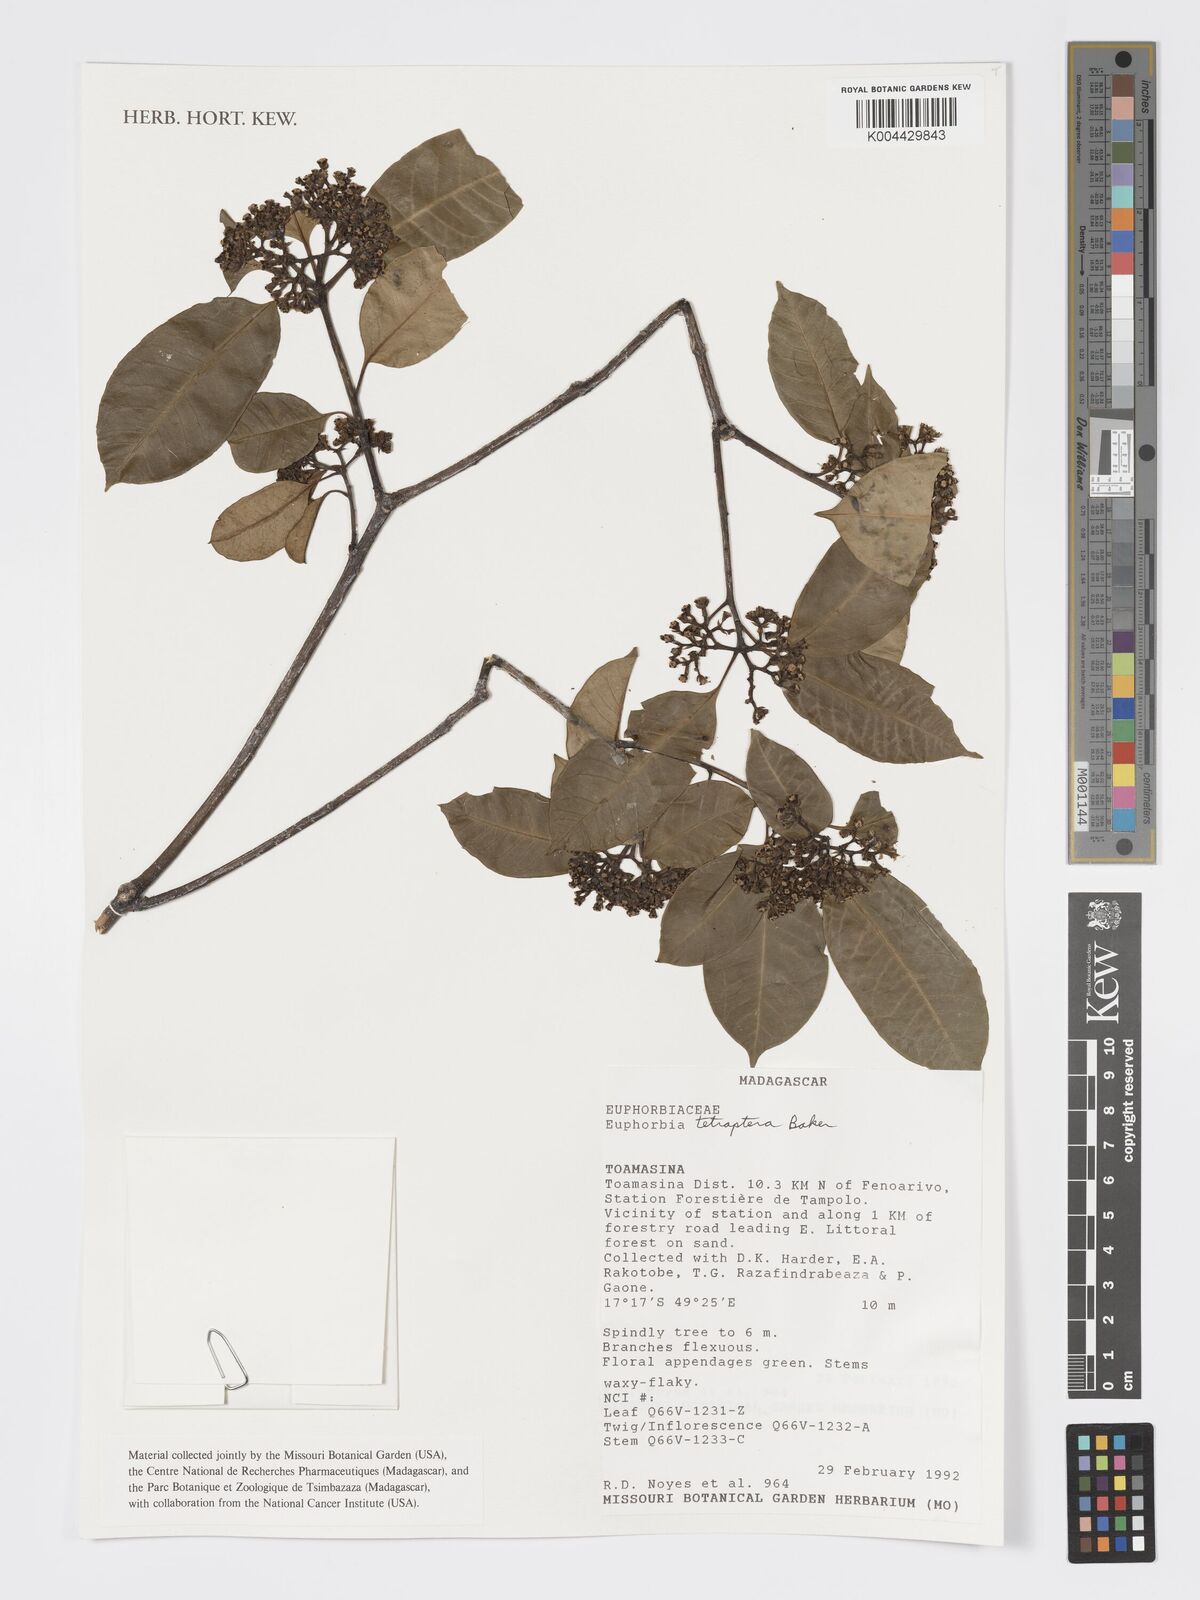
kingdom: Plantae
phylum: Tracheophyta
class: Magnoliopsida
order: Malpighiales
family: Euphorbiaceae
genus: Euphorbia
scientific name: Euphorbia tetraptera
